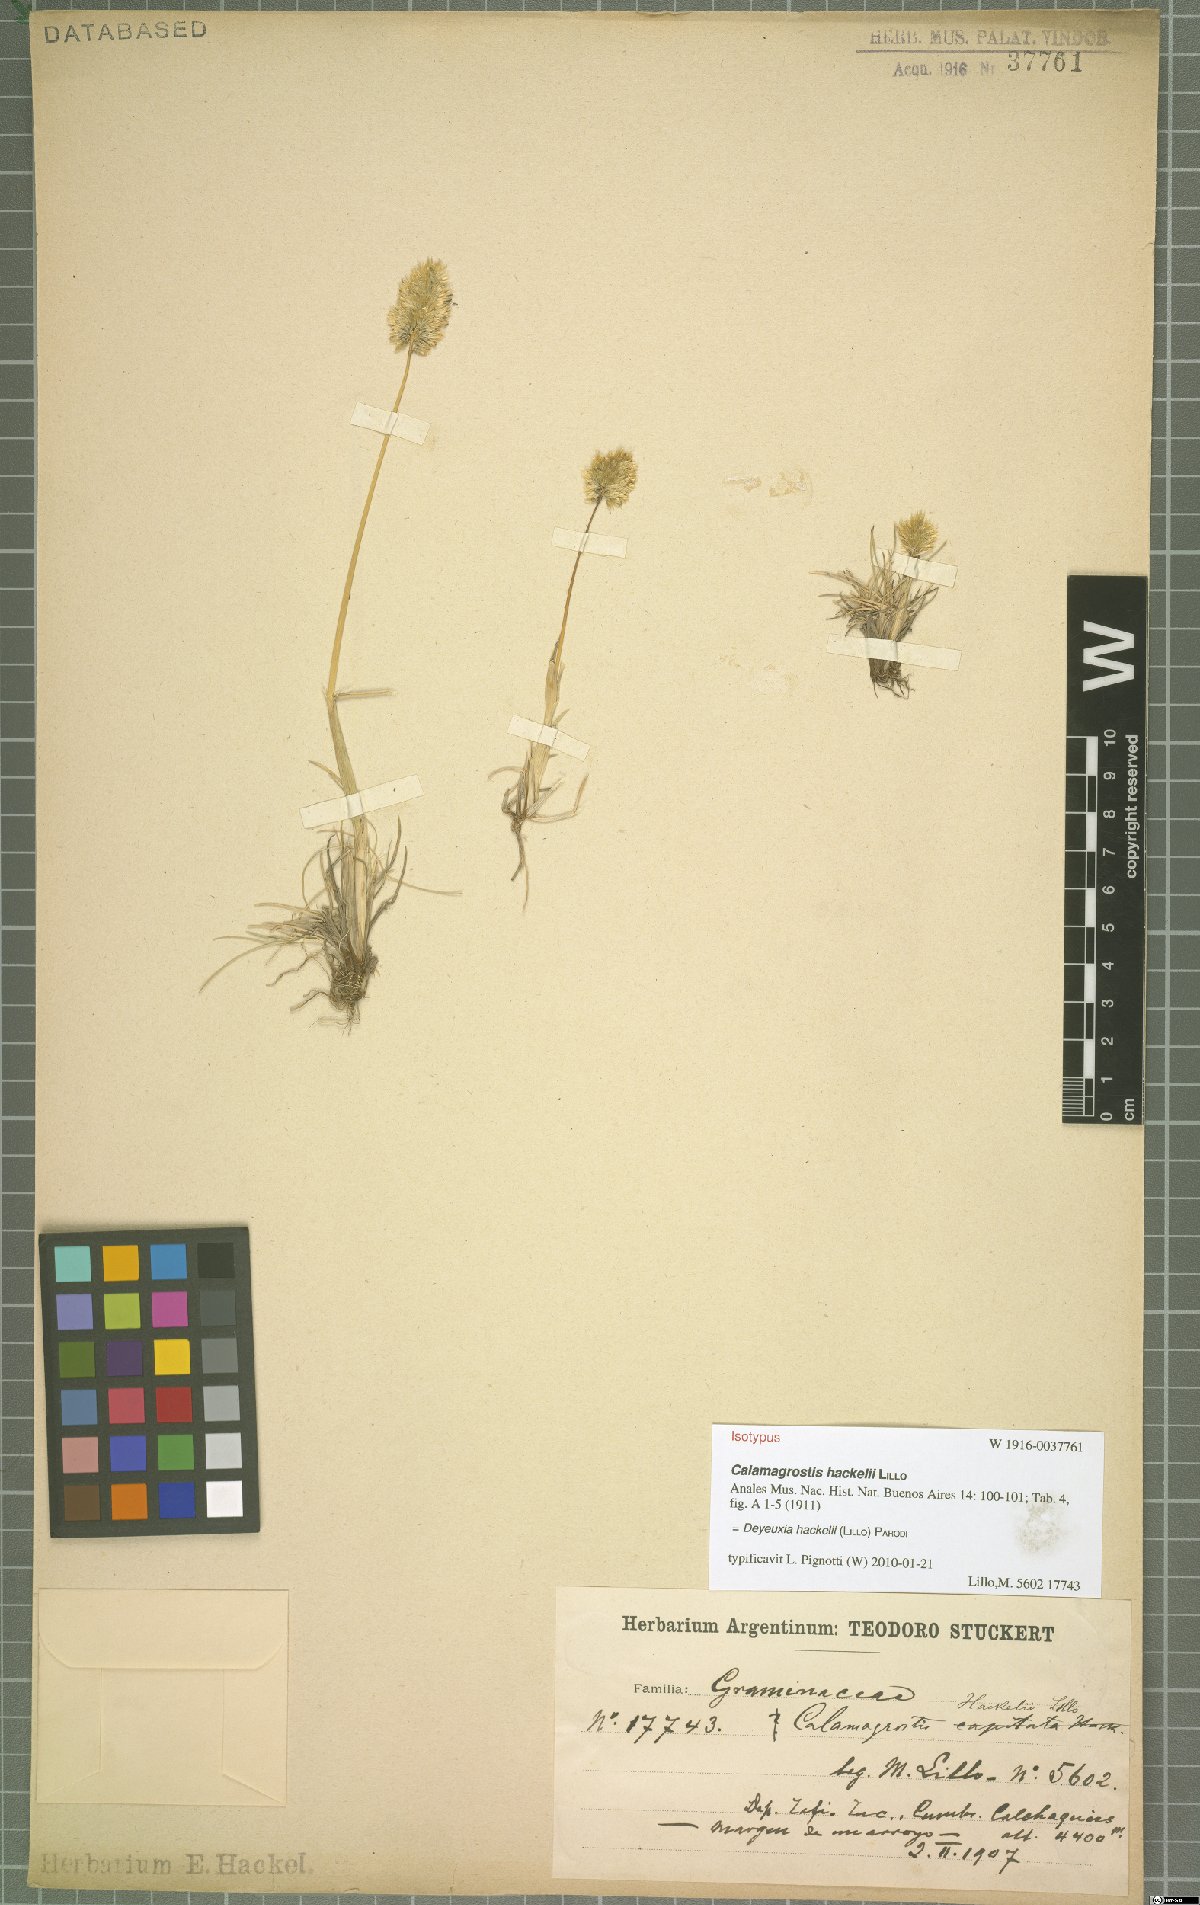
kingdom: Plantae
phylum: Tracheophyta
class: Liliopsida
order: Poales
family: Poaceae
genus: Deschampsia
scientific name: Deschampsia hackelii
